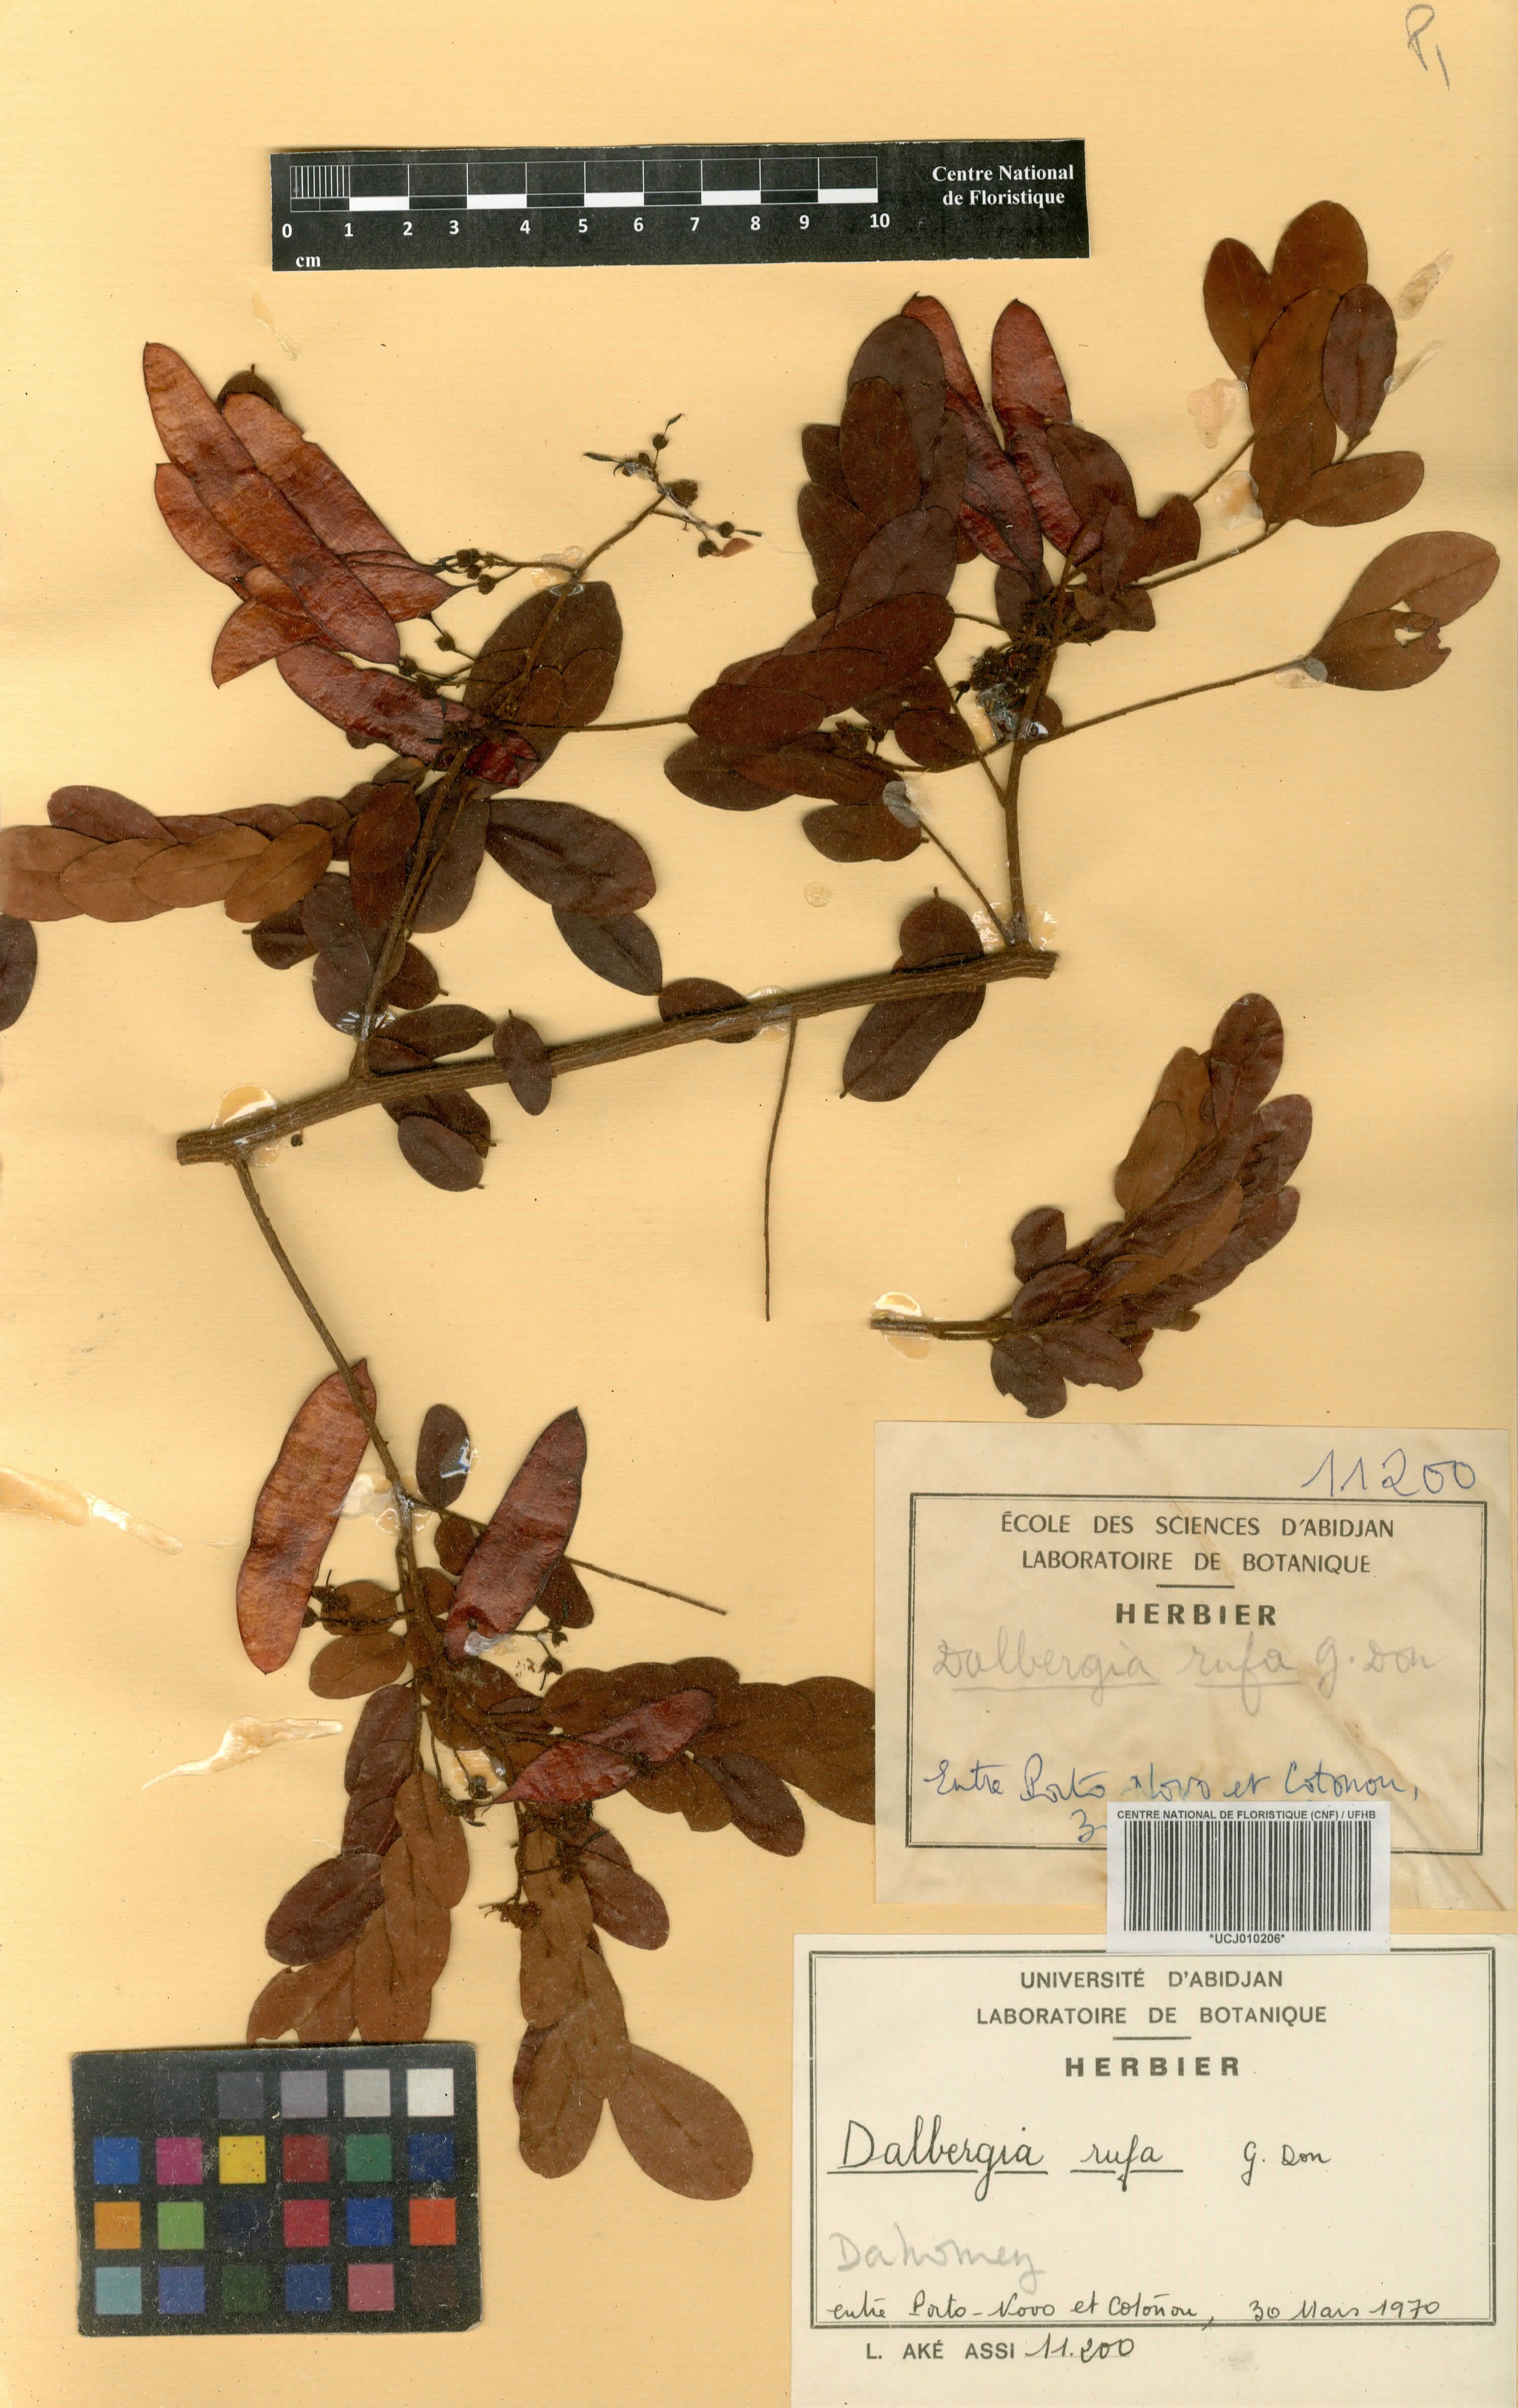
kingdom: Plantae
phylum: Tracheophyta
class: Magnoliopsida
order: Fabales
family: Fabaceae
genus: Dalbergia
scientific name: Dalbergia rufa
